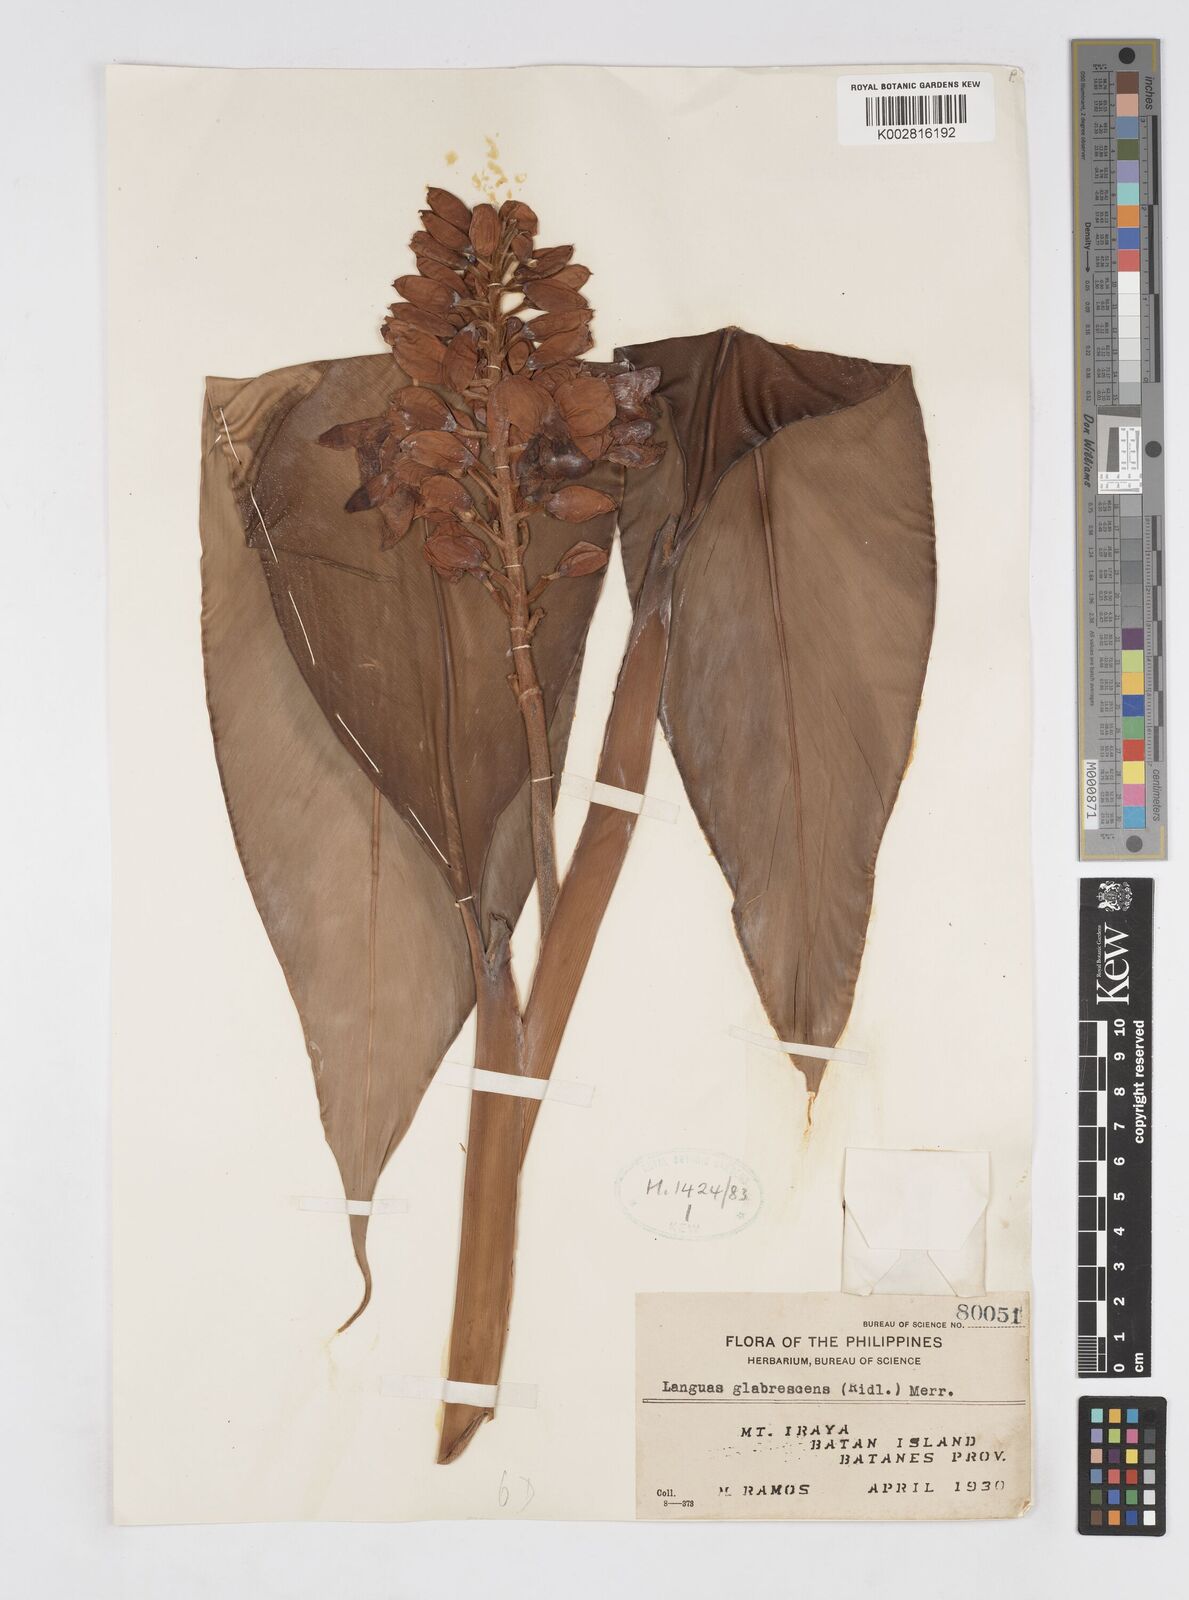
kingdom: Plantae
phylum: Tracheophyta
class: Liliopsida
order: Zingiberales
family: Zingiberaceae
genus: Alpinia
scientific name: Alpinia glabrescens
